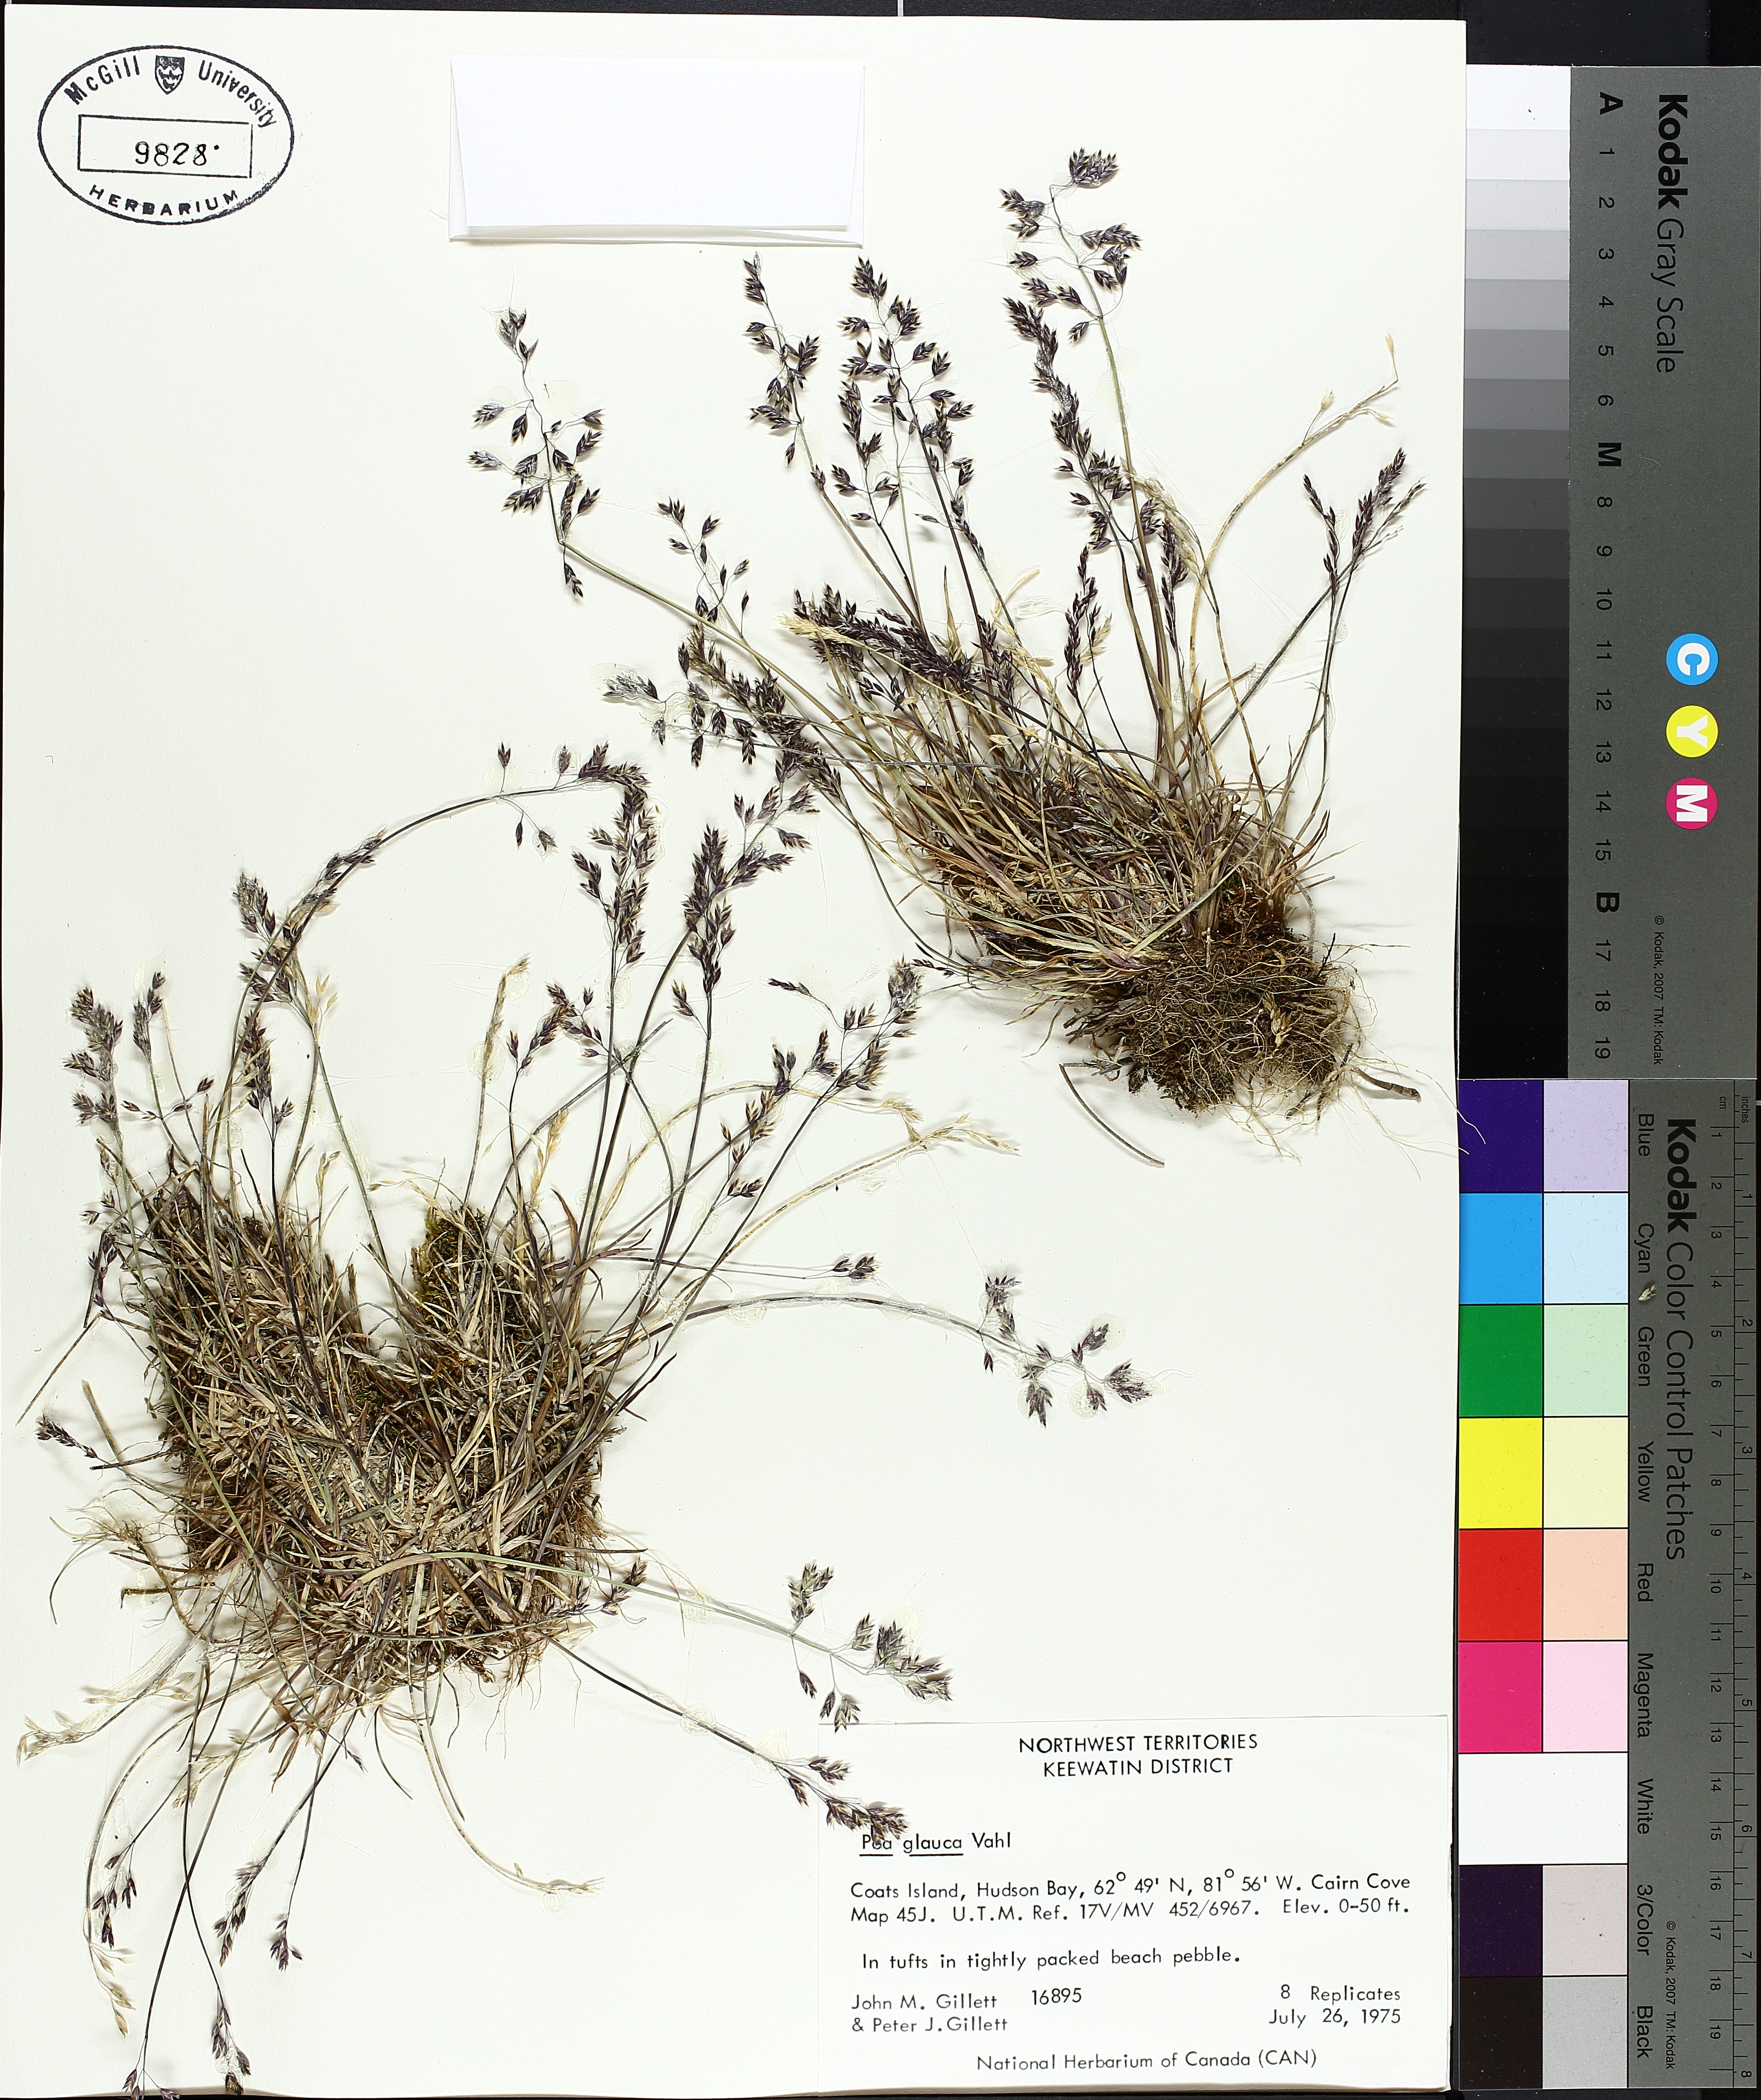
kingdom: Plantae
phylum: Tracheophyta
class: Liliopsida
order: Poales
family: Cyperaceae
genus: Eriophorum
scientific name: Eriophorum vaginatum
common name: Hare's-tail cottongrass
